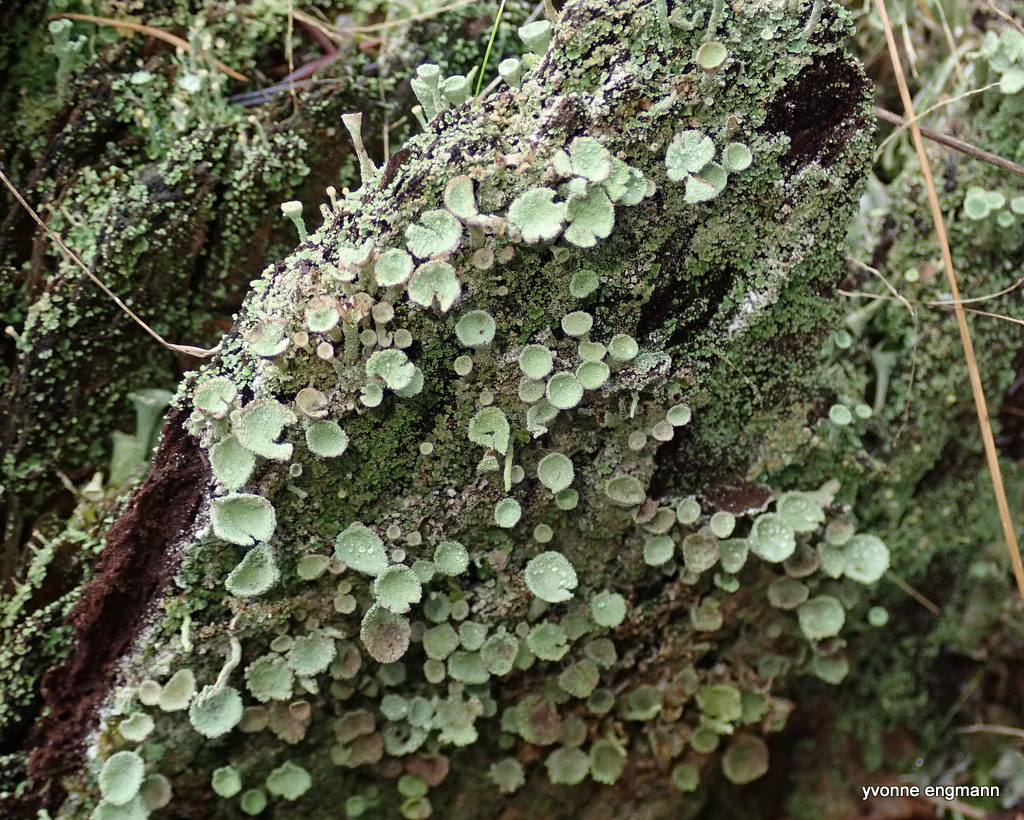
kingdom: Fungi
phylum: Ascomycota
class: Lecanoromycetes
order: Lecanorales
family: Cladoniaceae
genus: Cladonia
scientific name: Cladonia
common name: brungrøn bægerlav
